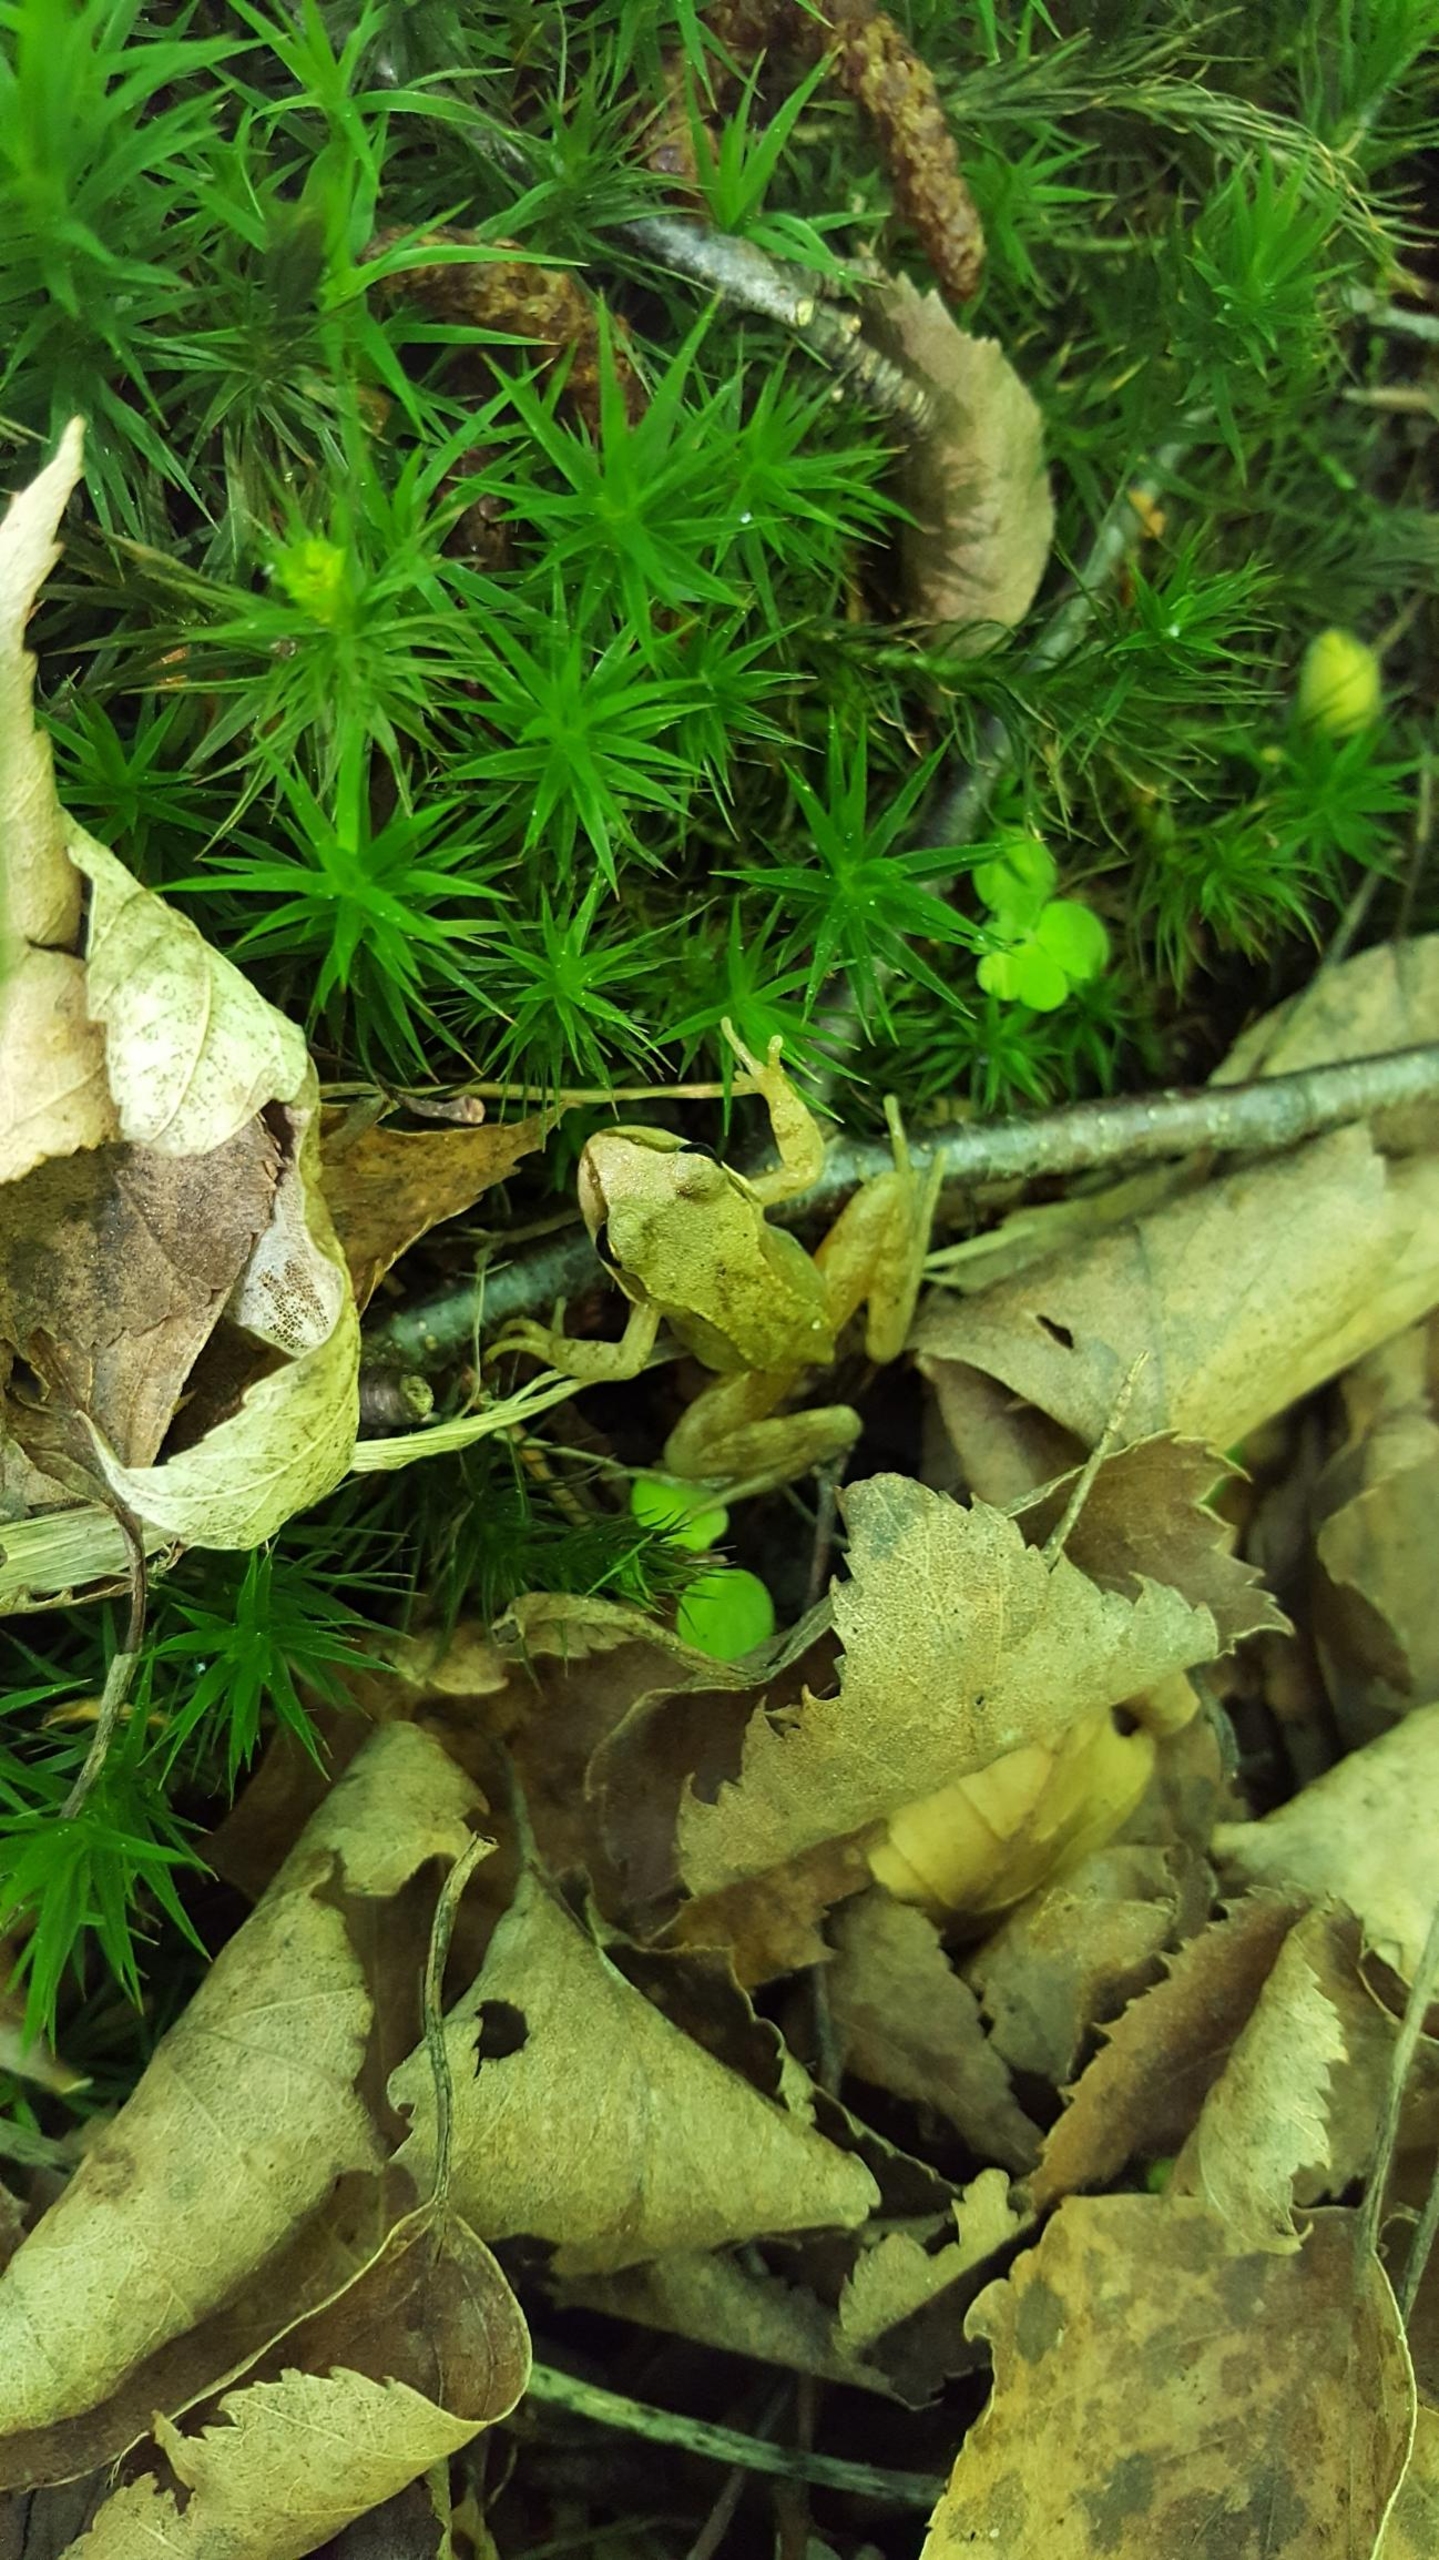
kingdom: Animalia
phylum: Chordata
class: Amphibia
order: Anura
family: Ranidae
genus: Rana
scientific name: Rana
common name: Rana
